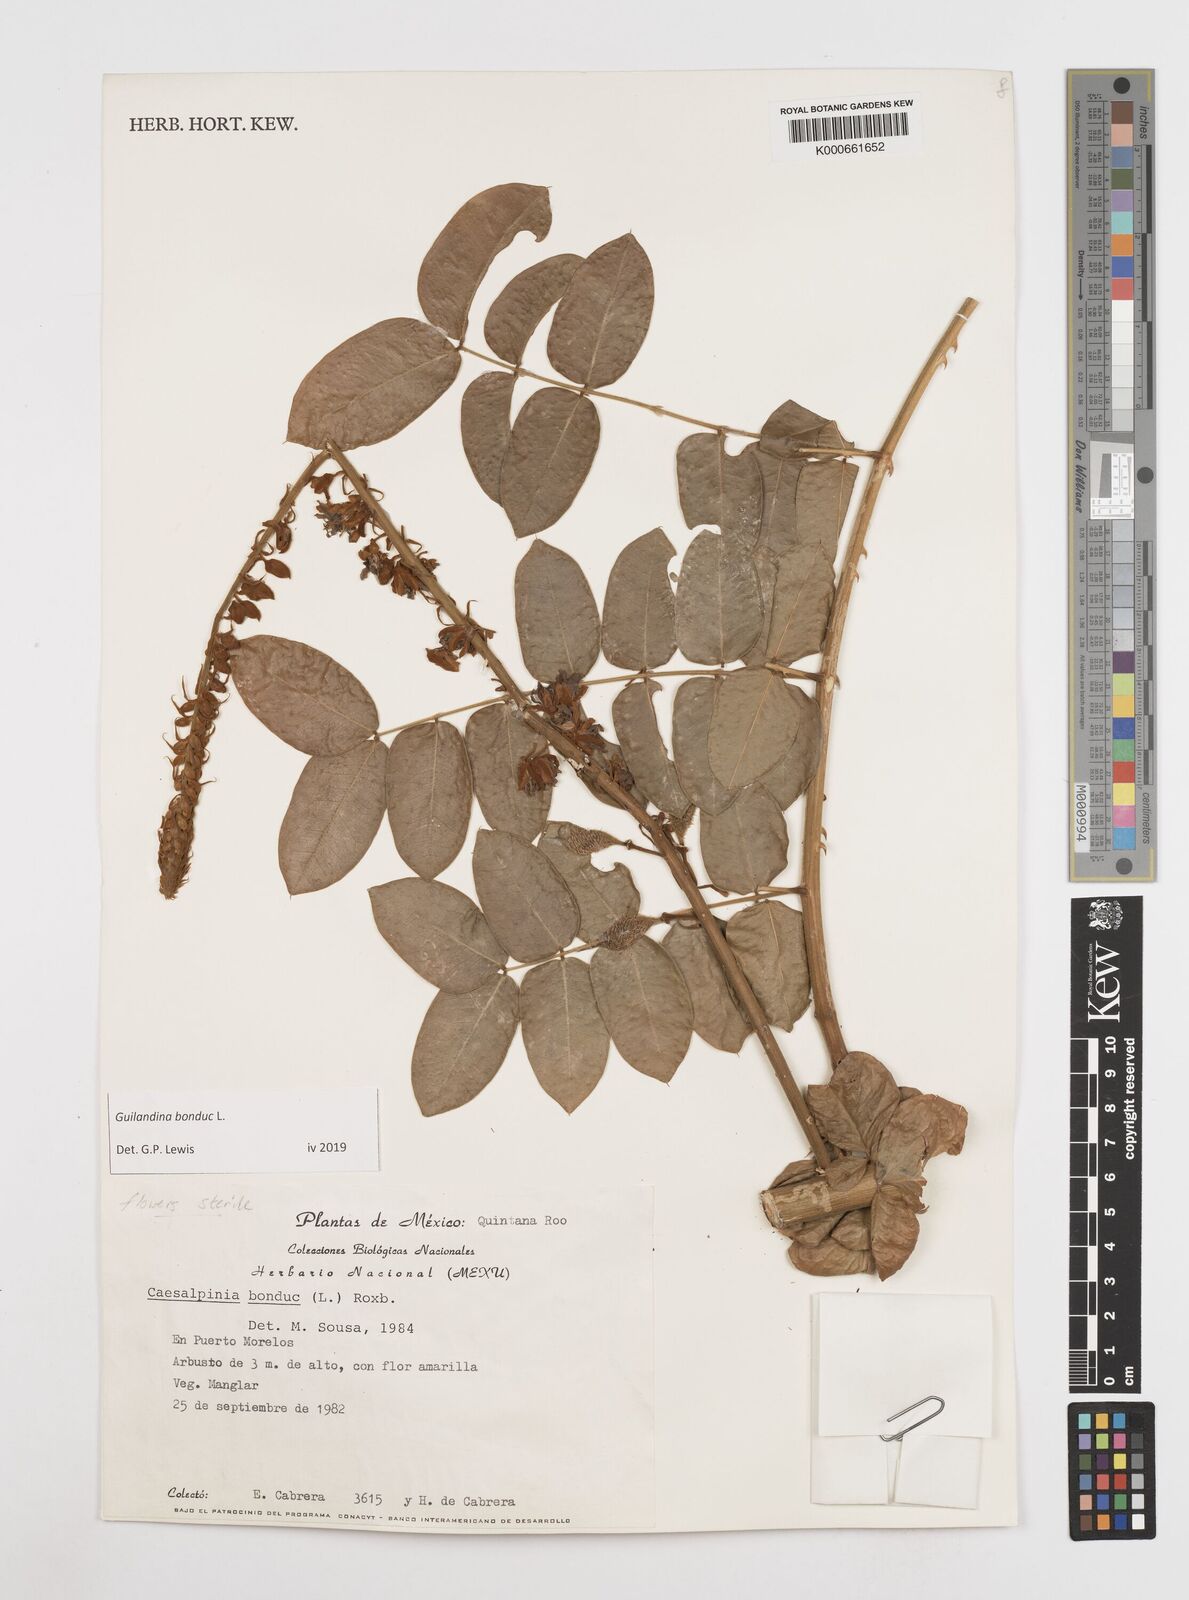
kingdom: Plantae
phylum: Tracheophyta
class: Magnoliopsida
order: Asterales
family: Goodeniaceae
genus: Scaevola
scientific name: Scaevola
